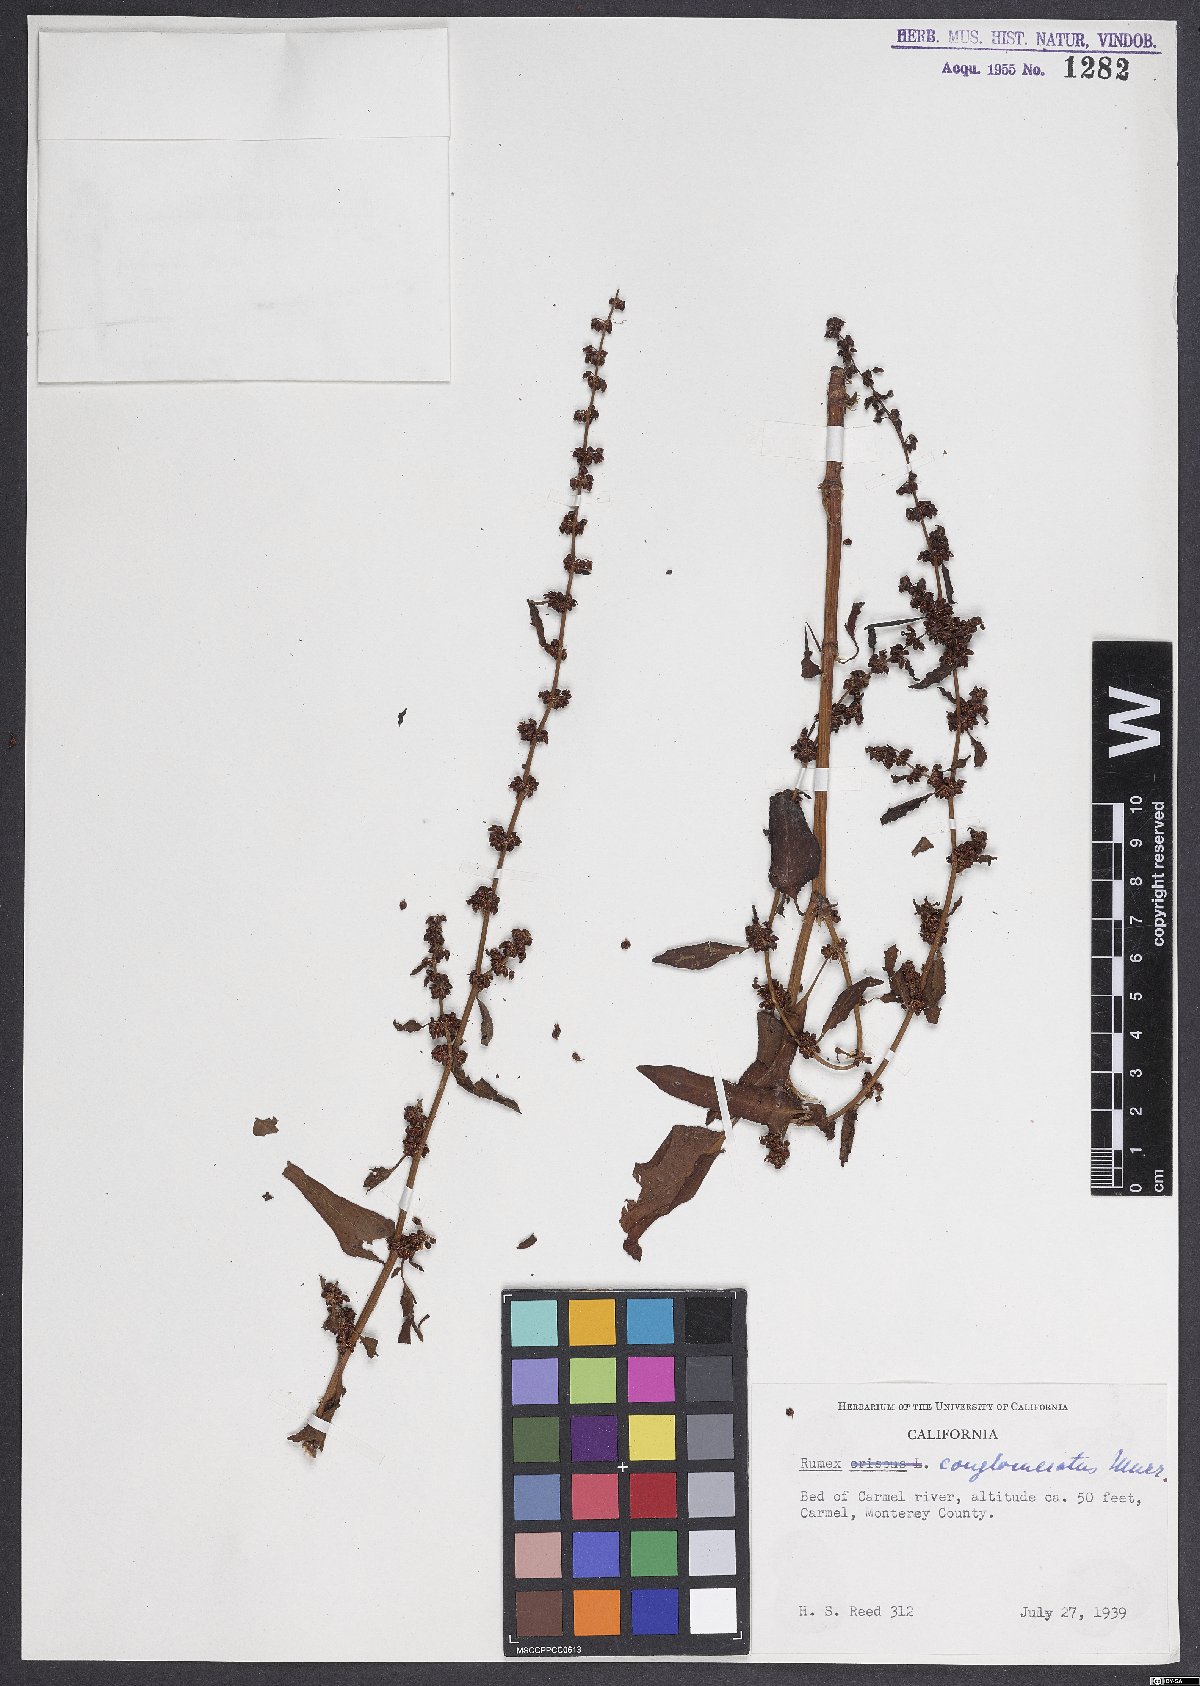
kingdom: Plantae
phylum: Tracheophyta
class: Magnoliopsida
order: Caryophyllales
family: Polygonaceae
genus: Rumex
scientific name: Rumex conglomeratus
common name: Clustered dock
